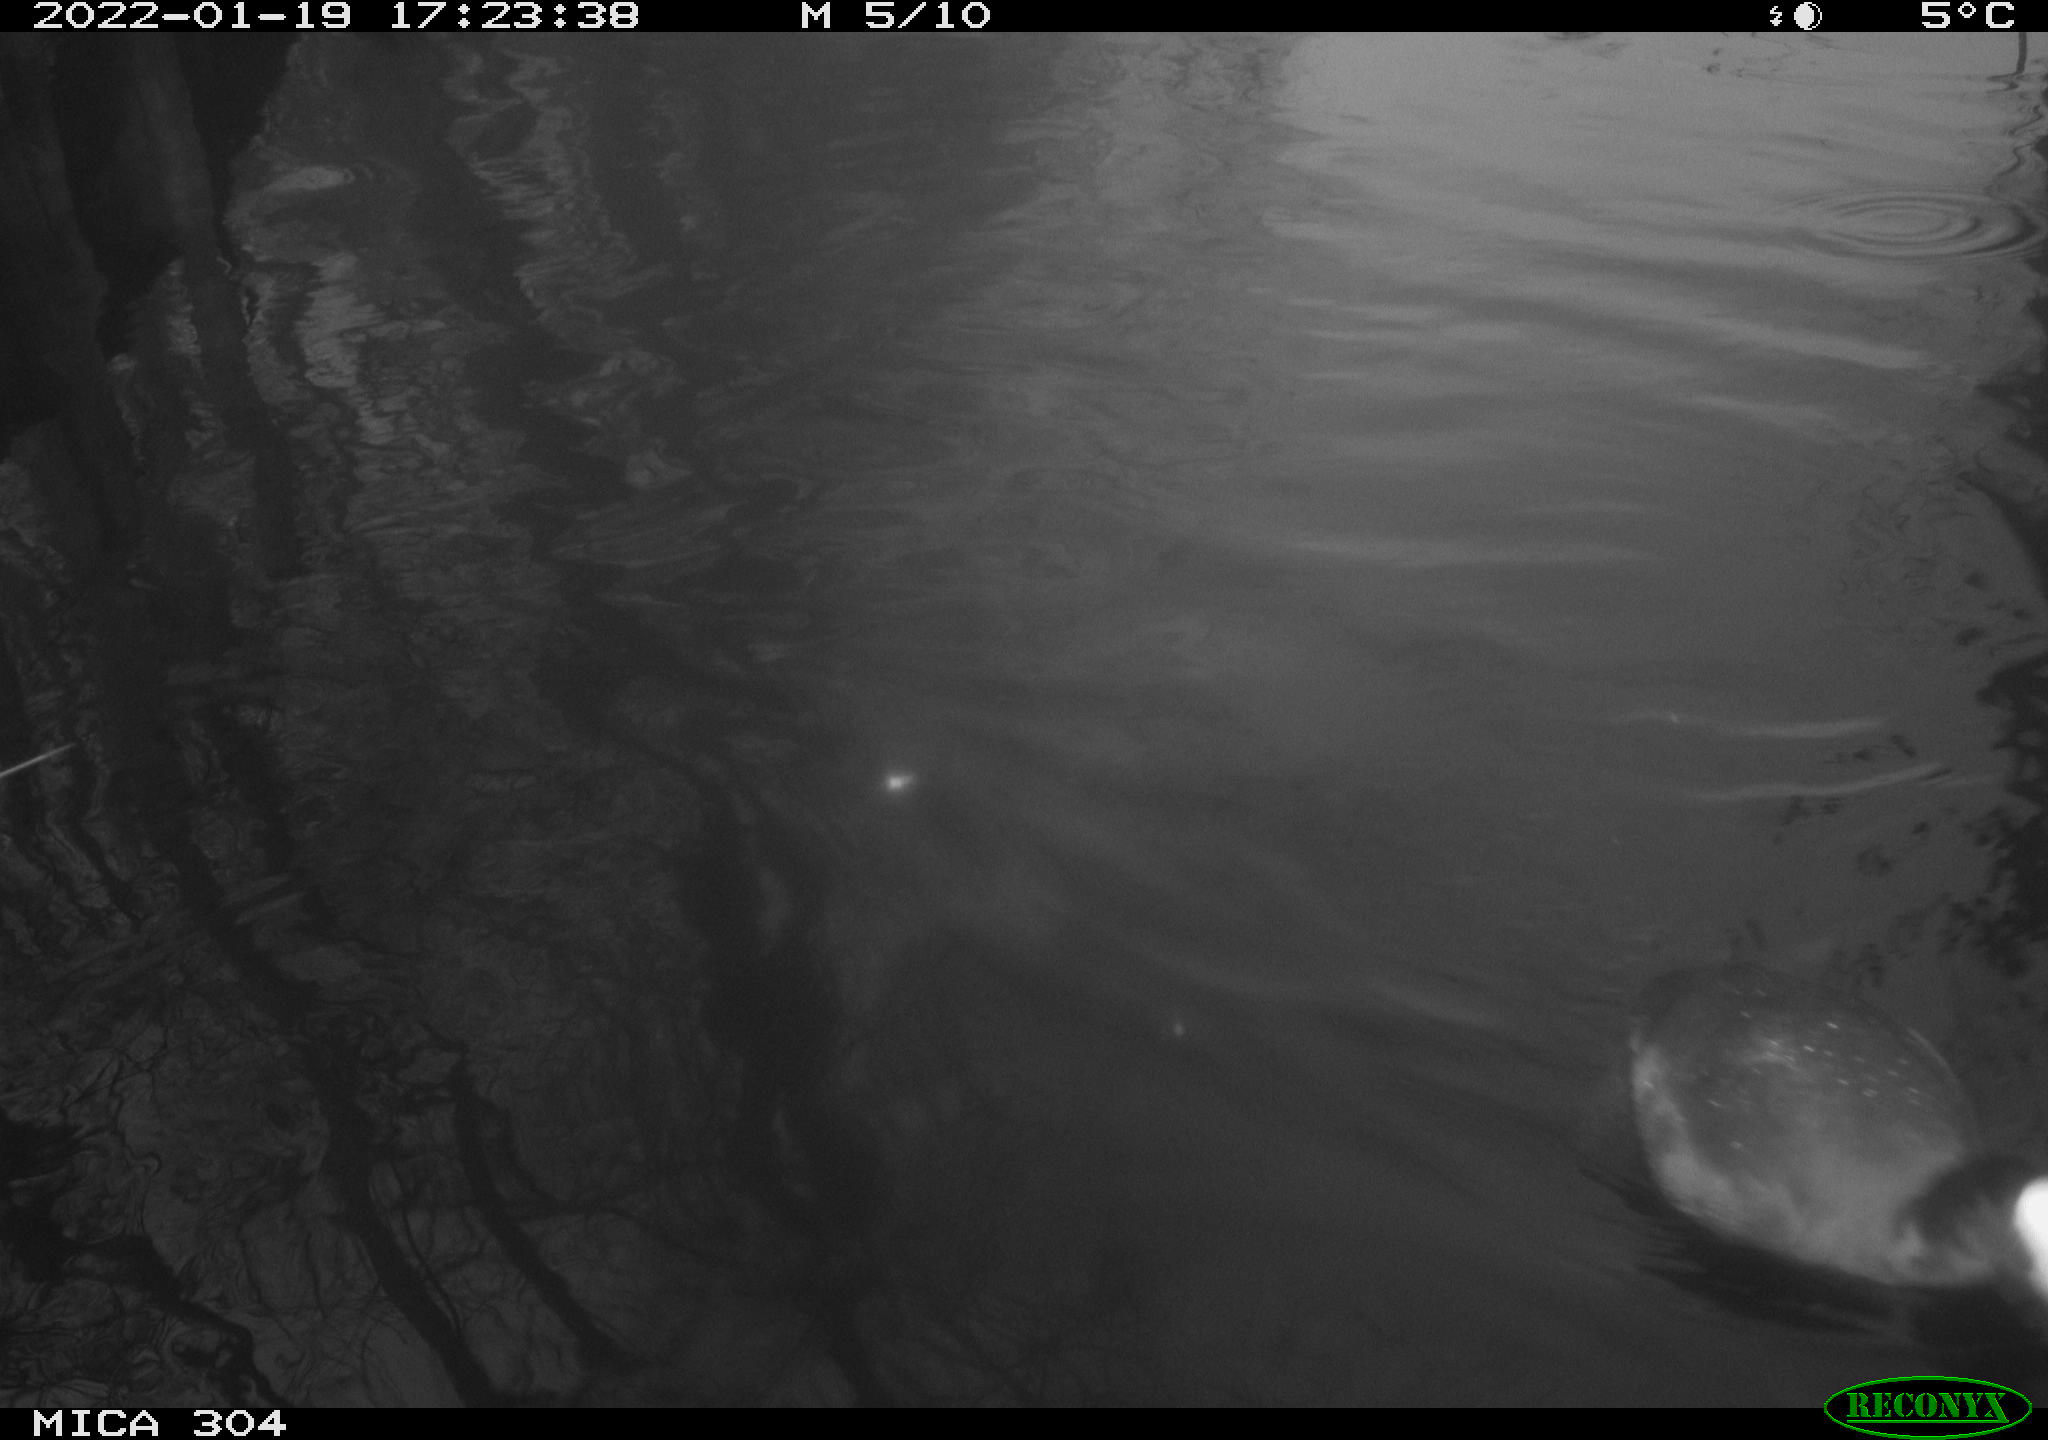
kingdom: Animalia
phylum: Chordata
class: Aves
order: Gruiformes
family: Rallidae
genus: Fulica
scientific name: Fulica atra
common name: Eurasian coot
